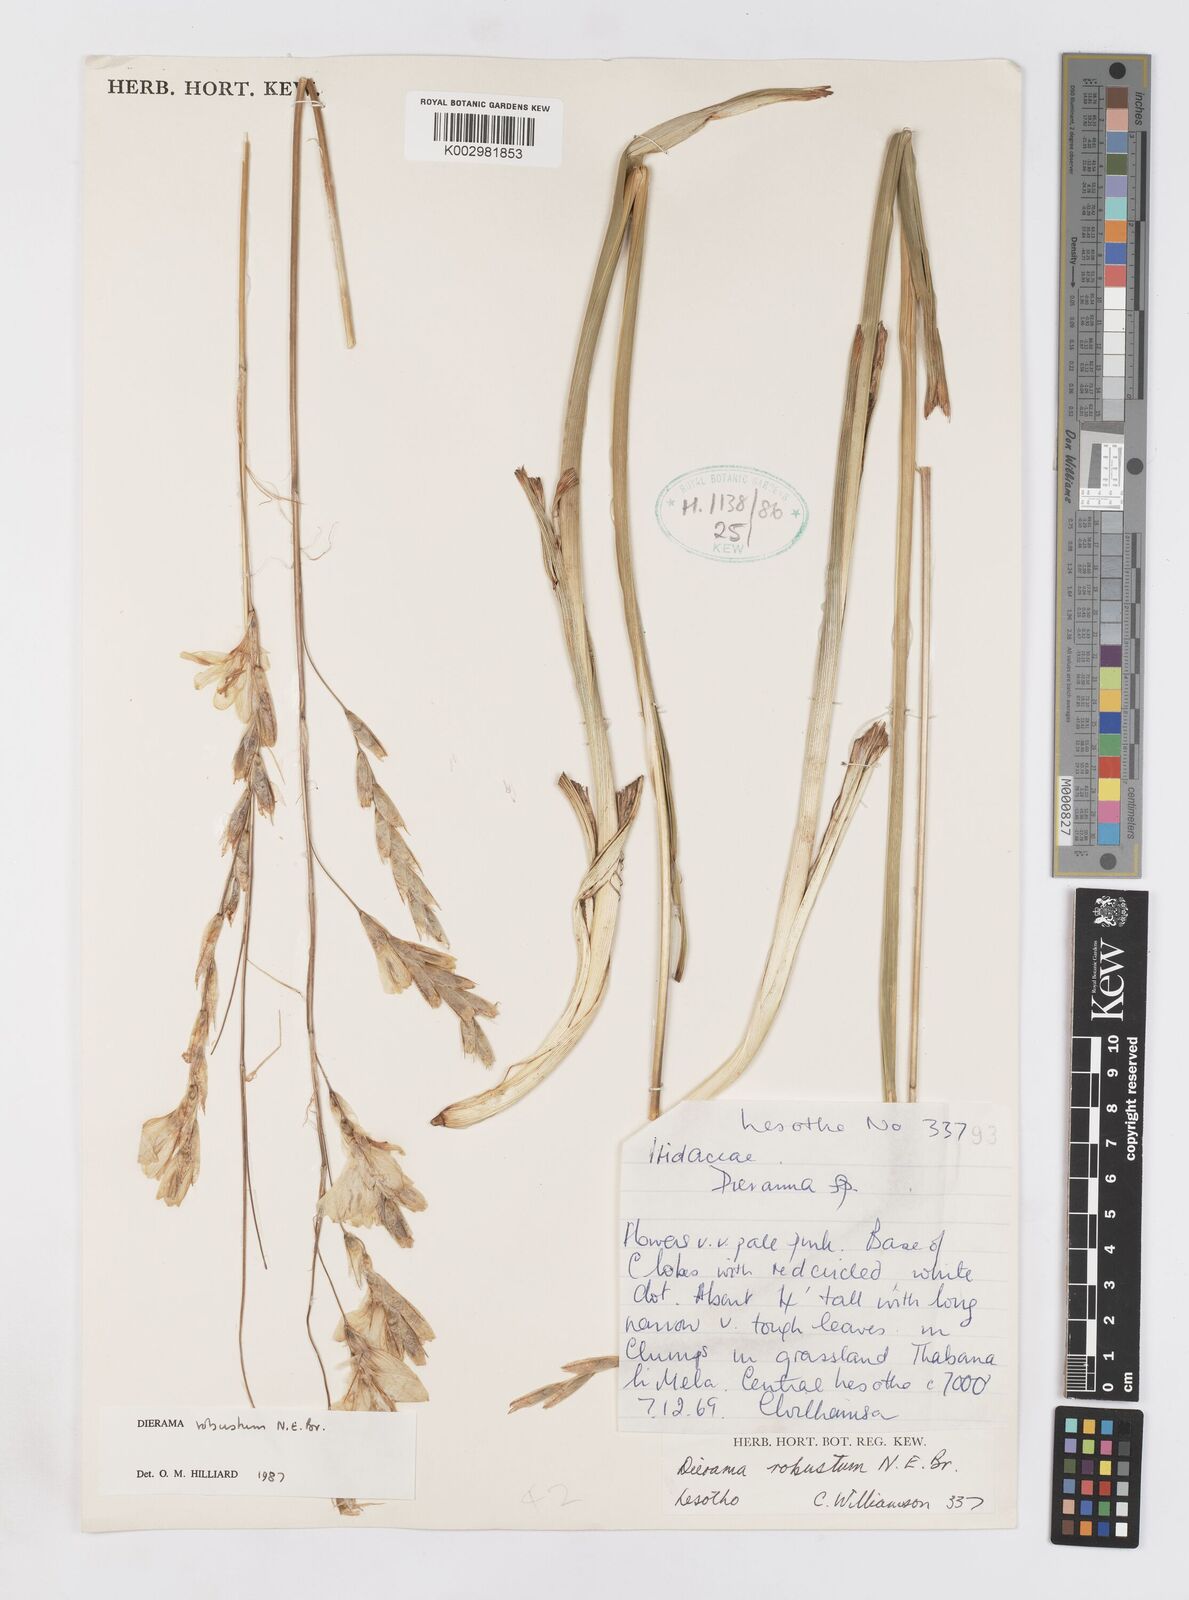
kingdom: Plantae
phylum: Tracheophyta
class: Liliopsida
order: Asparagales
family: Iridaceae
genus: Dierama
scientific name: Dierama robustum
